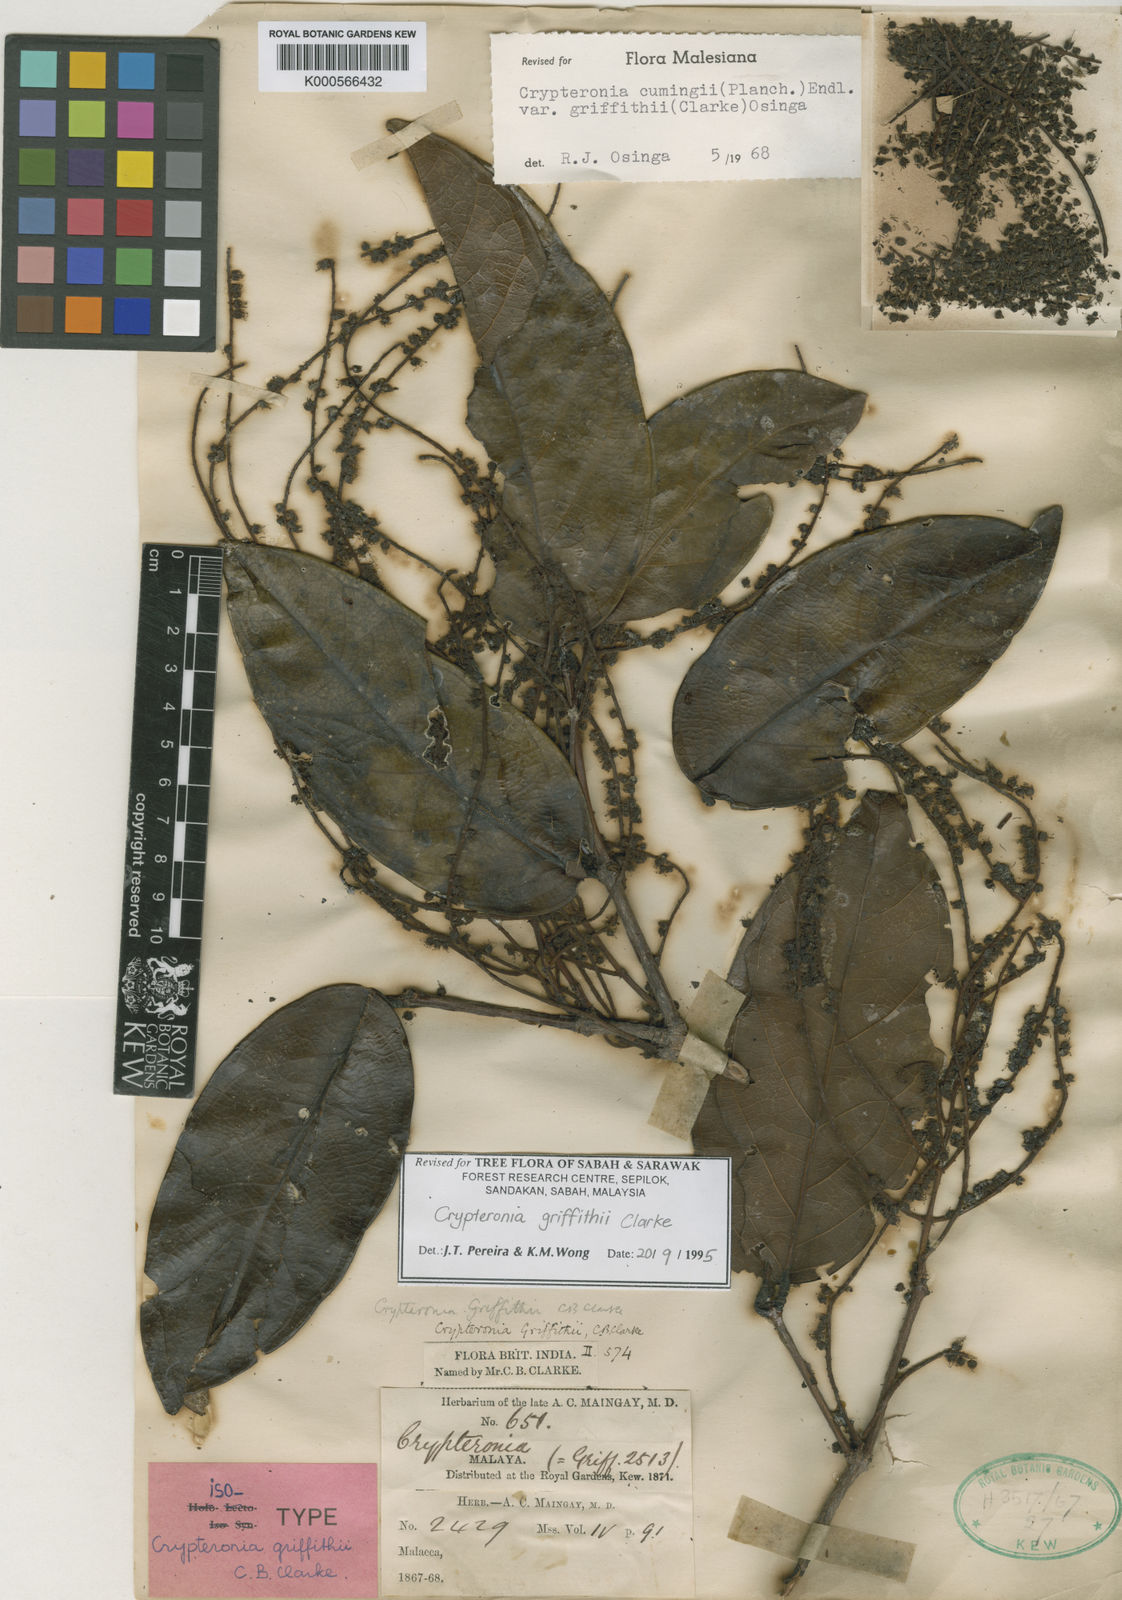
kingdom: Plantae
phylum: Tracheophyta
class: Magnoliopsida
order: Myrtales
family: Crypteroniaceae
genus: Crypteronia
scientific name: Crypteronia griffithii
